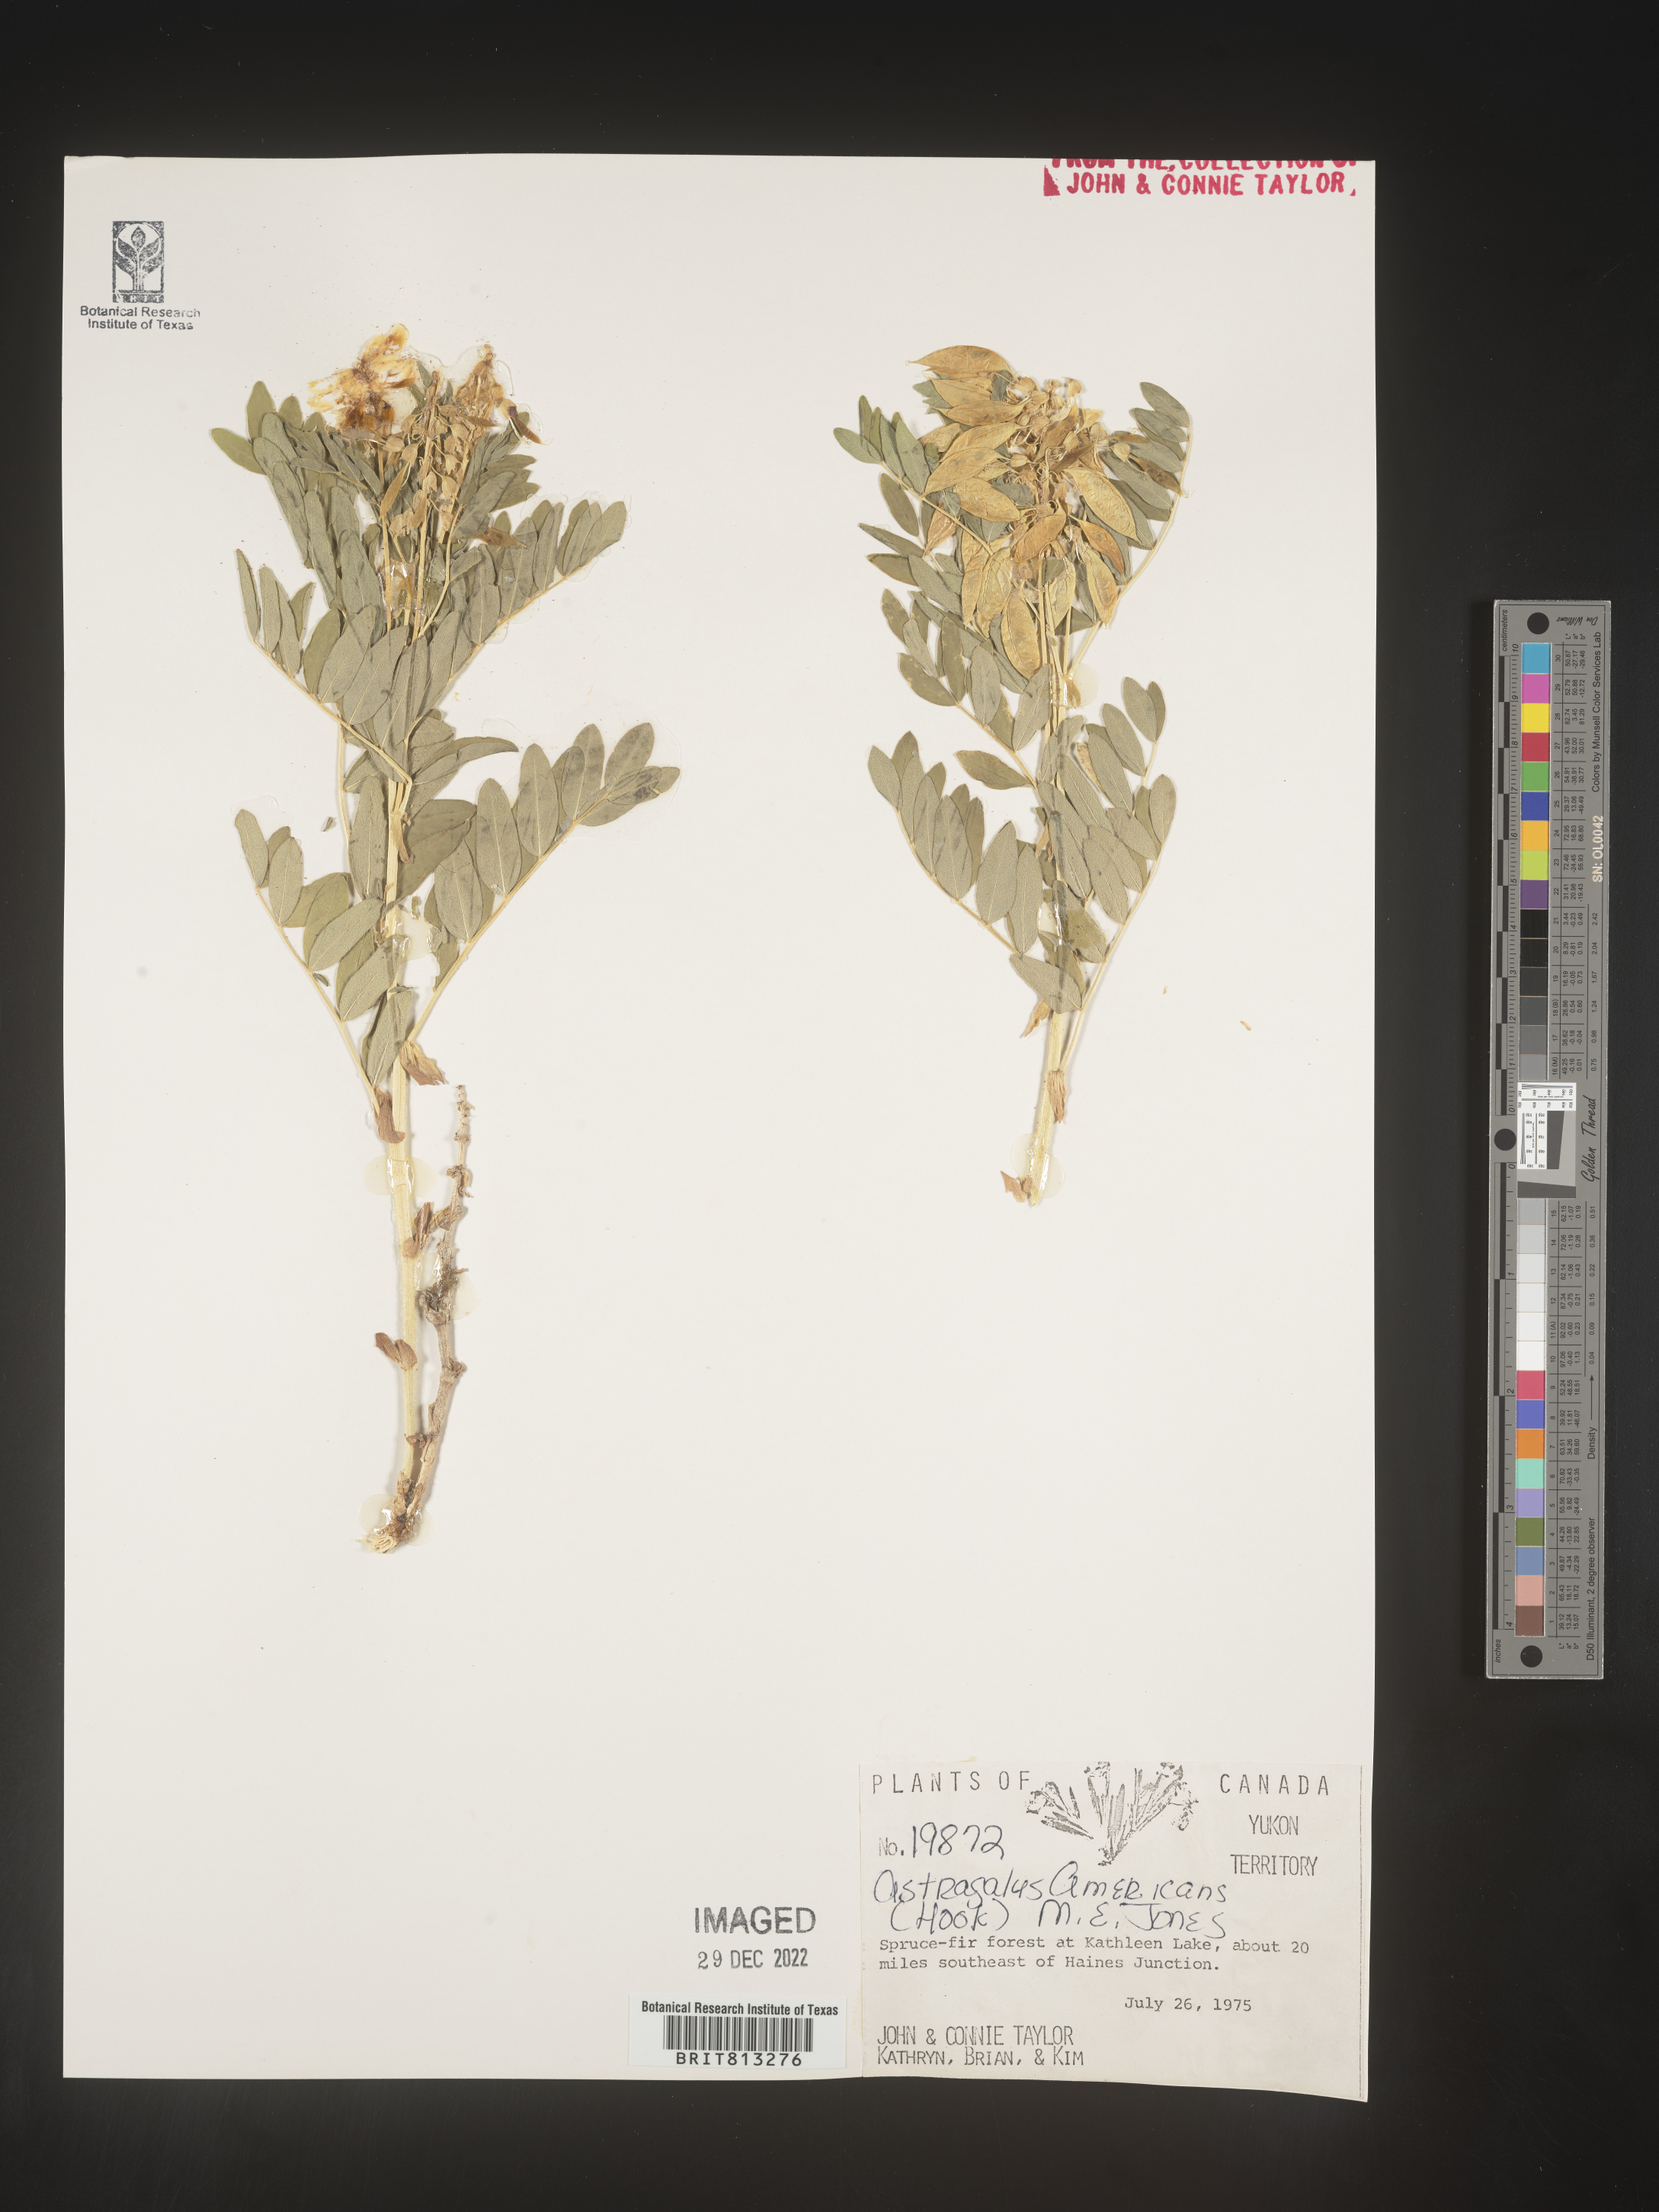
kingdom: Plantae
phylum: Tracheophyta
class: Magnoliopsida
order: Fabales
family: Fabaceae
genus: Astragalus
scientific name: Astragalus
